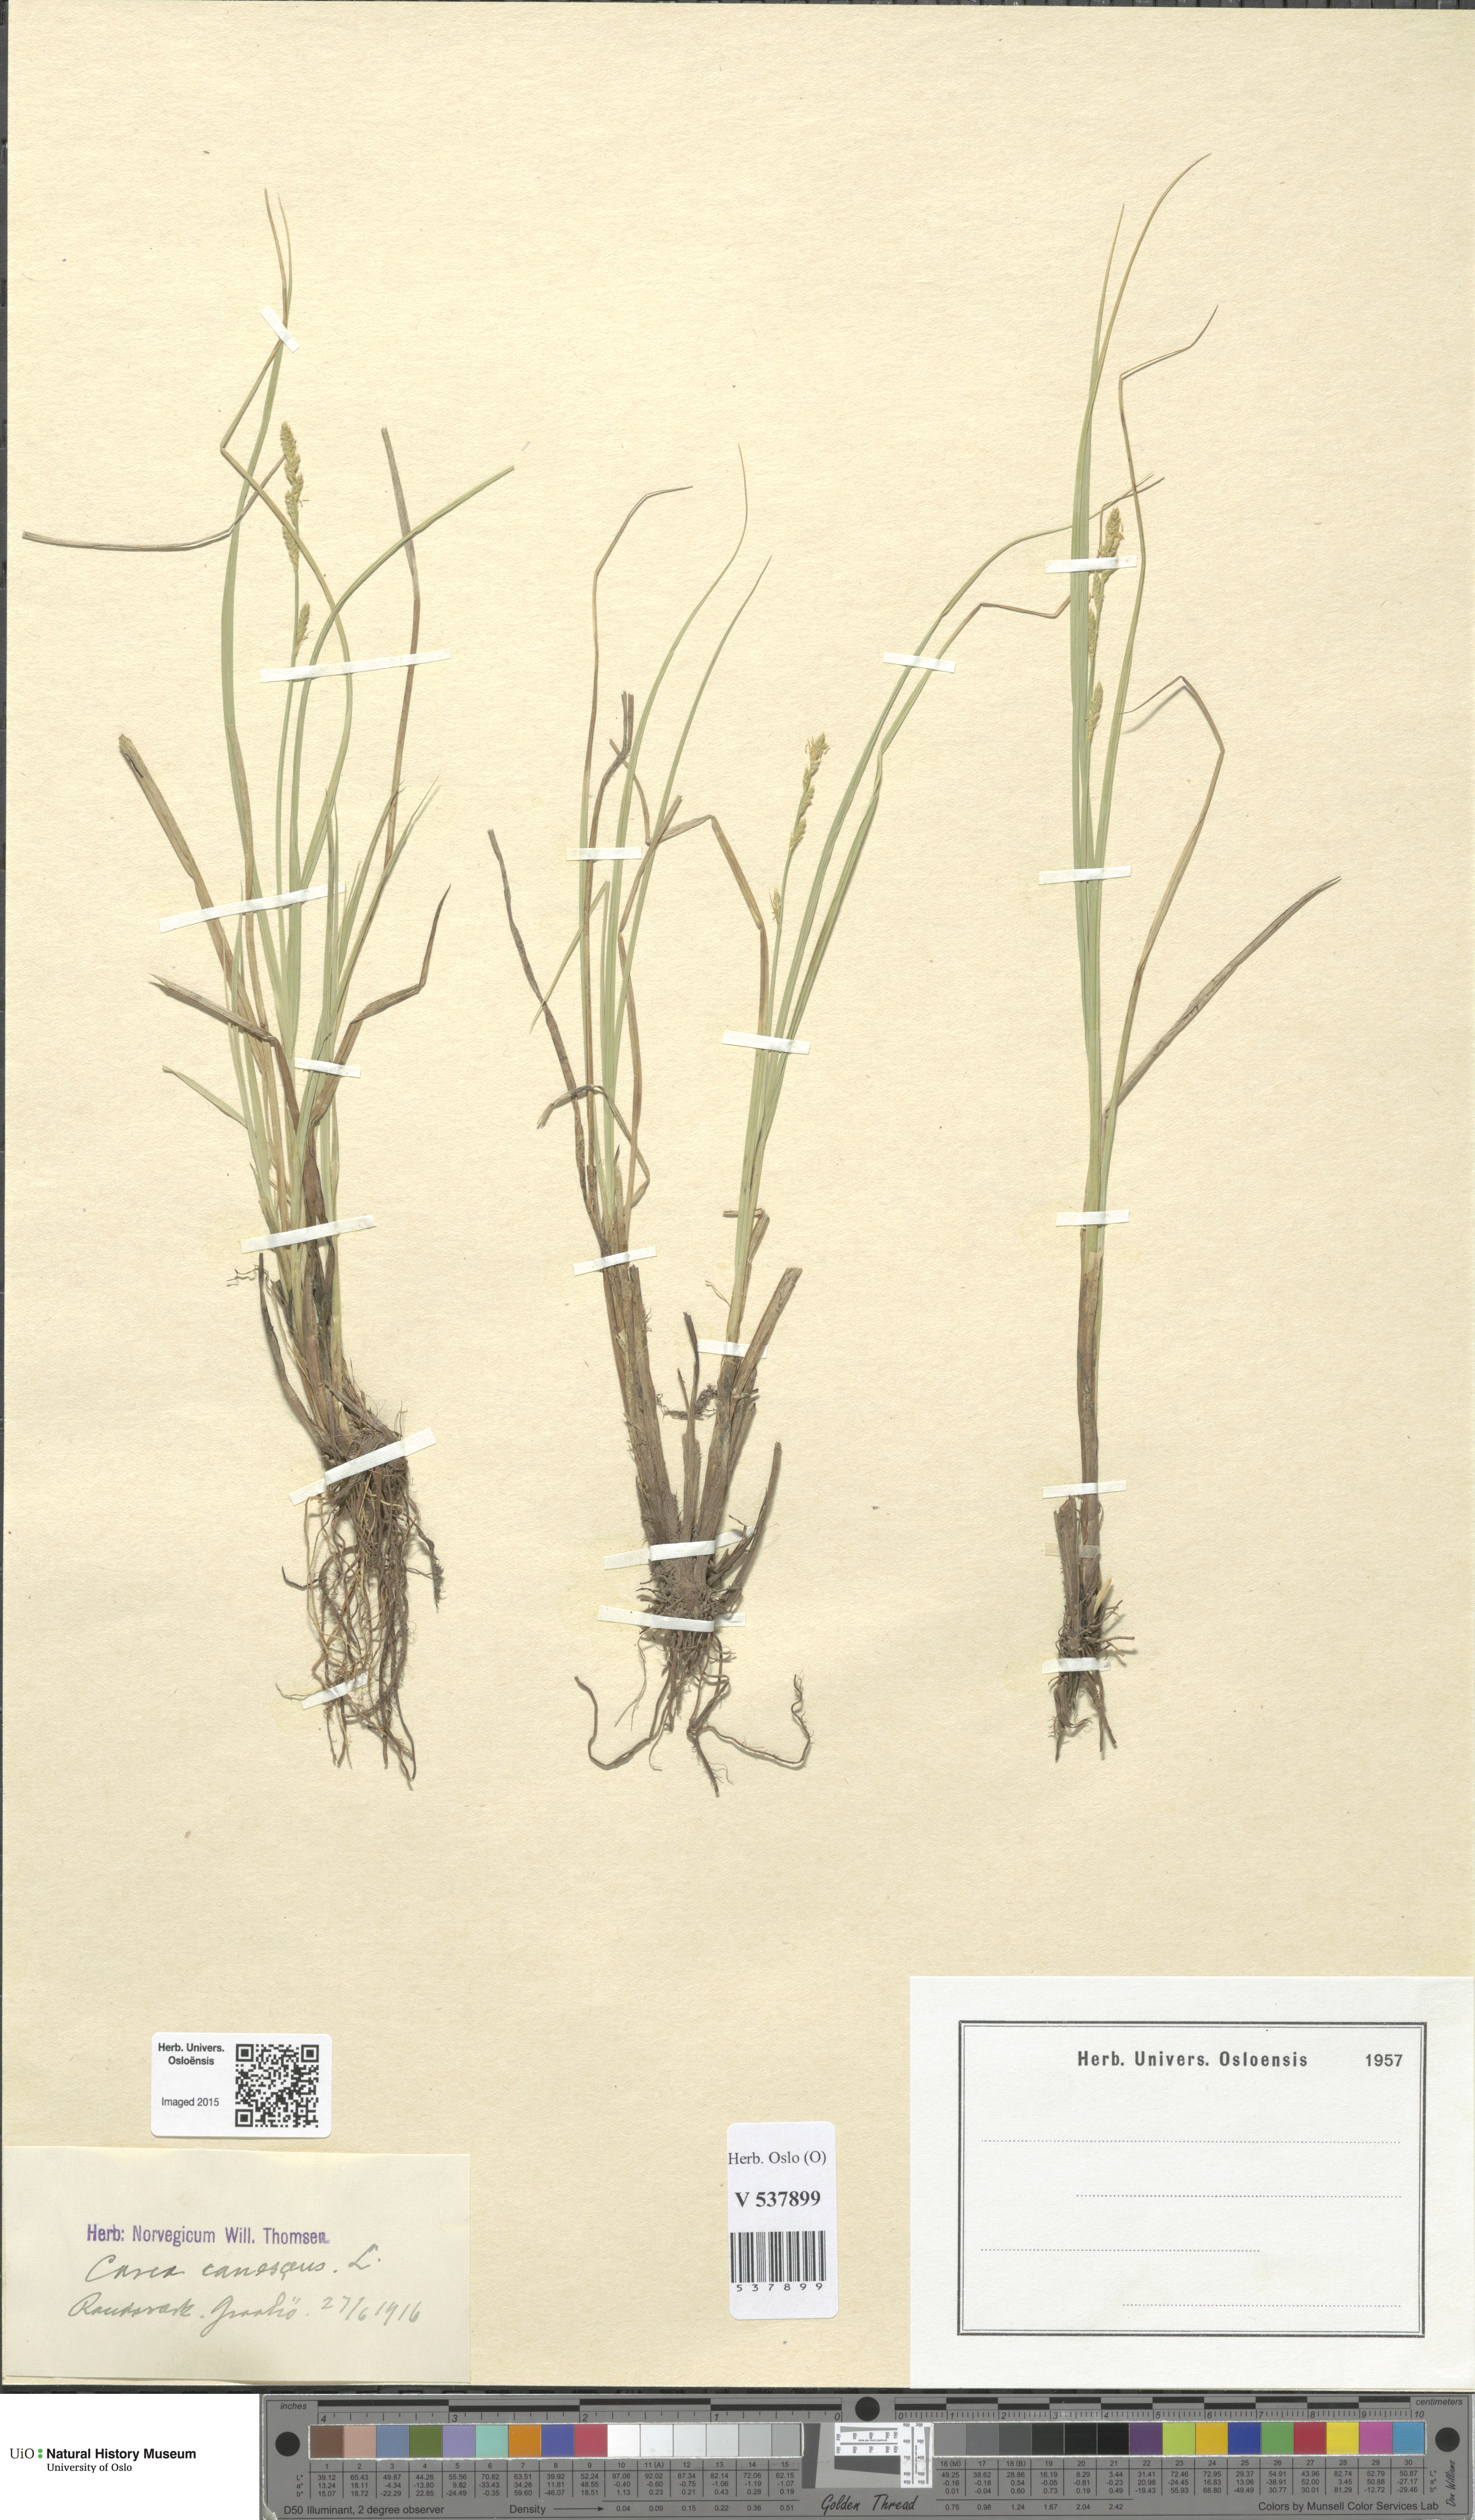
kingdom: Plantae
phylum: Tracheophyta
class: Liliopsida
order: Poales
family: Cyperaceae
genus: Carex
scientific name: Carex canescens
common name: White sedge
